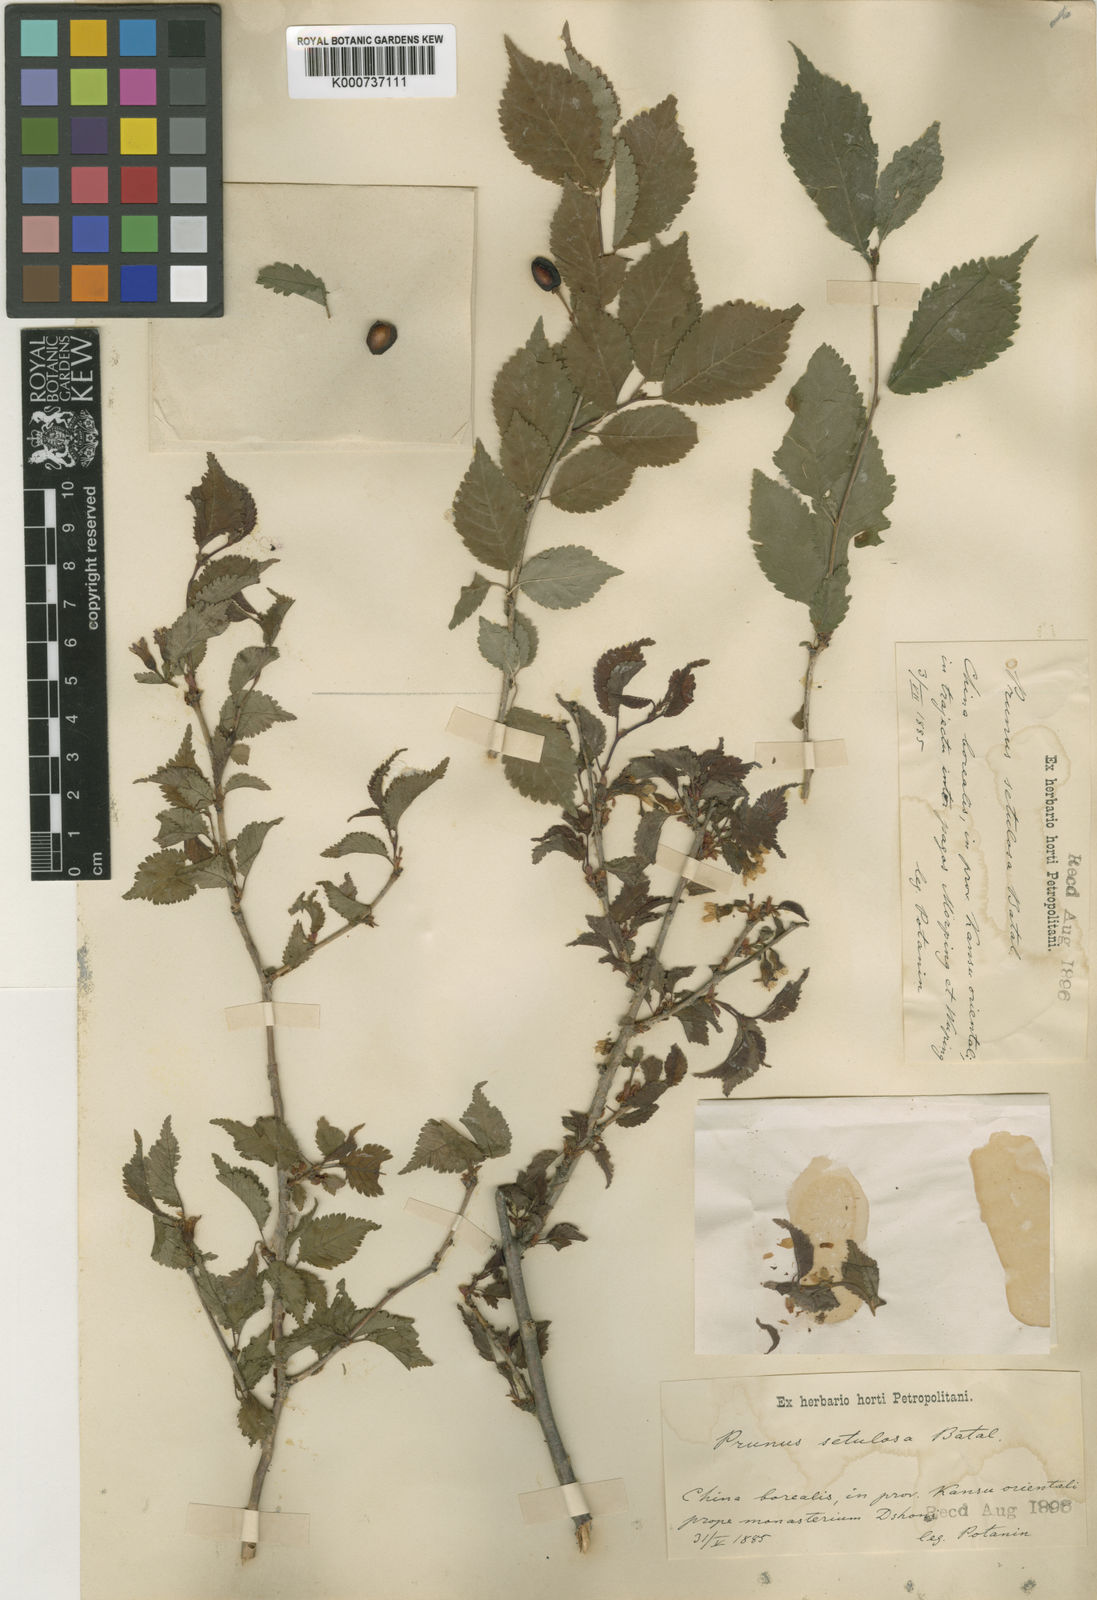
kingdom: Plantae
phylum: Tracheophyta
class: Magnoliopsida
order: Rosales
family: Rosaceae
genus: Prunus
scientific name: Prunus setulosa
